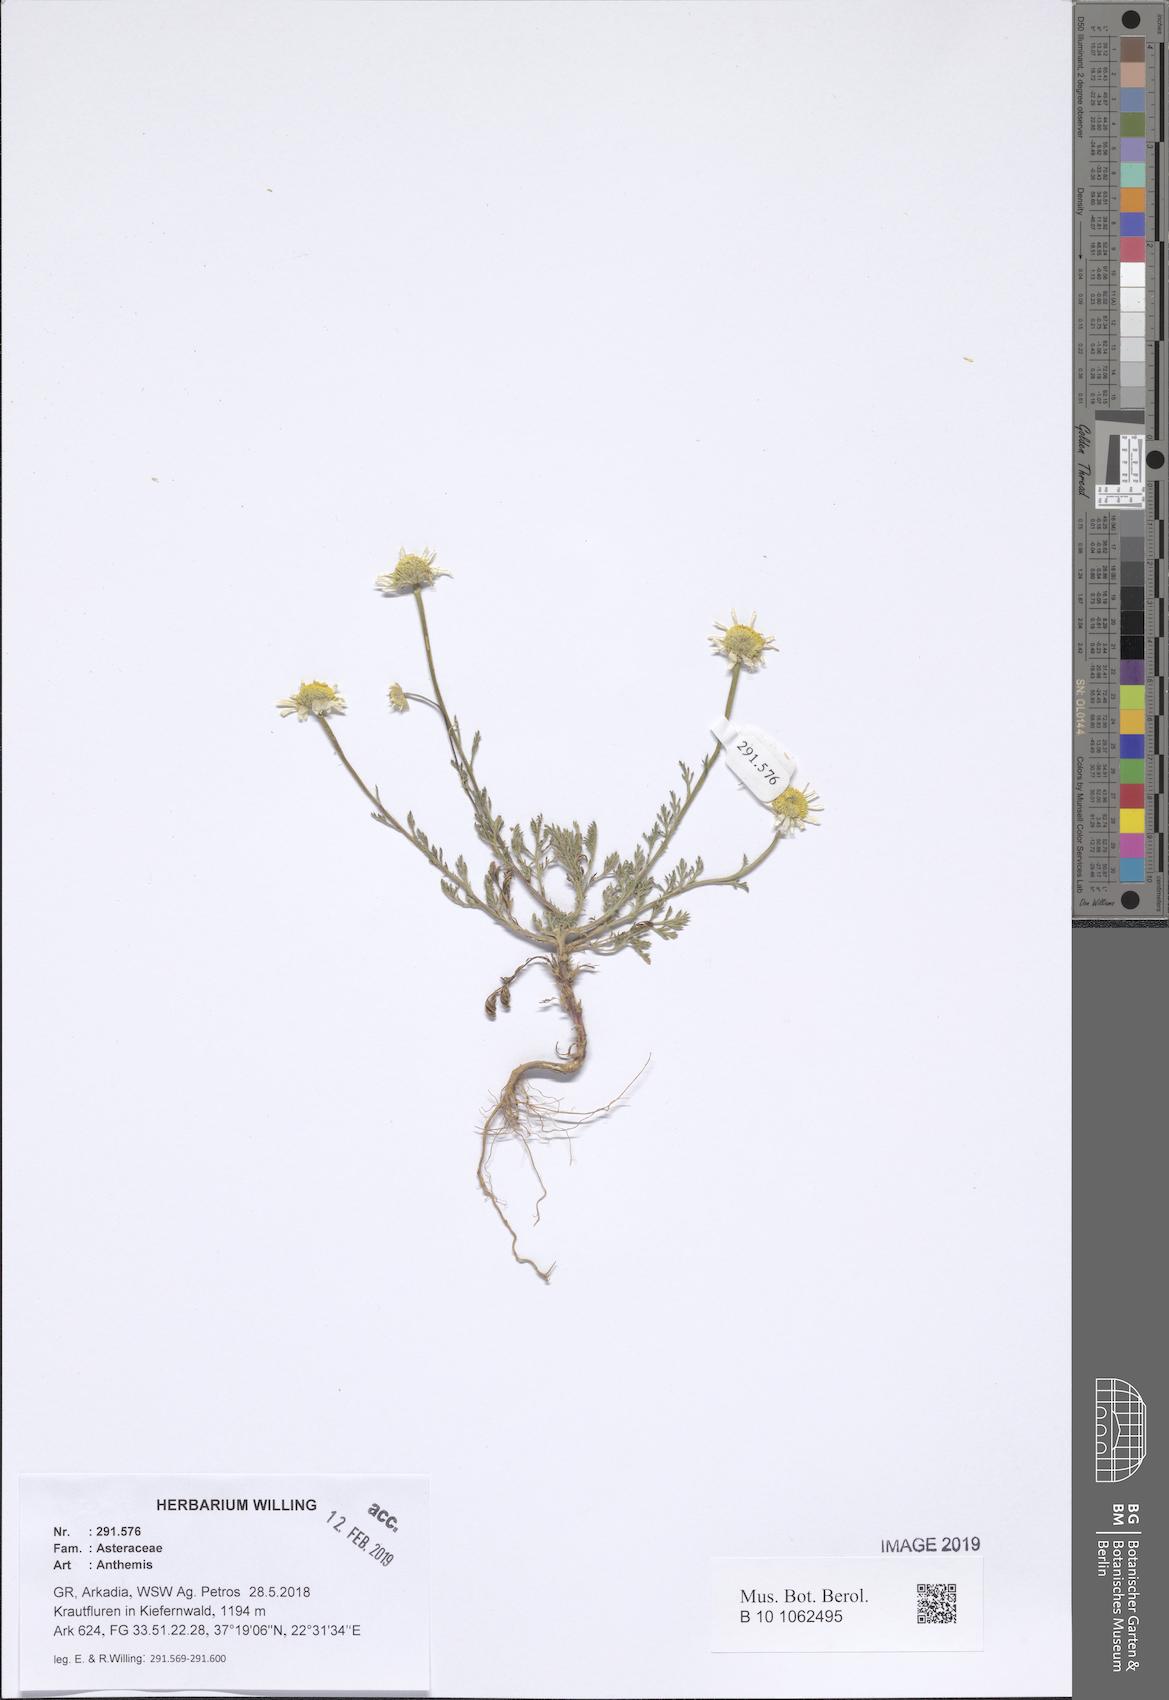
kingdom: Plantae
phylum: Tracheophyta
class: Magnoliopsida
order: Asterales
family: Asteraceae
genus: Anthemis
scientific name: Anthemis
